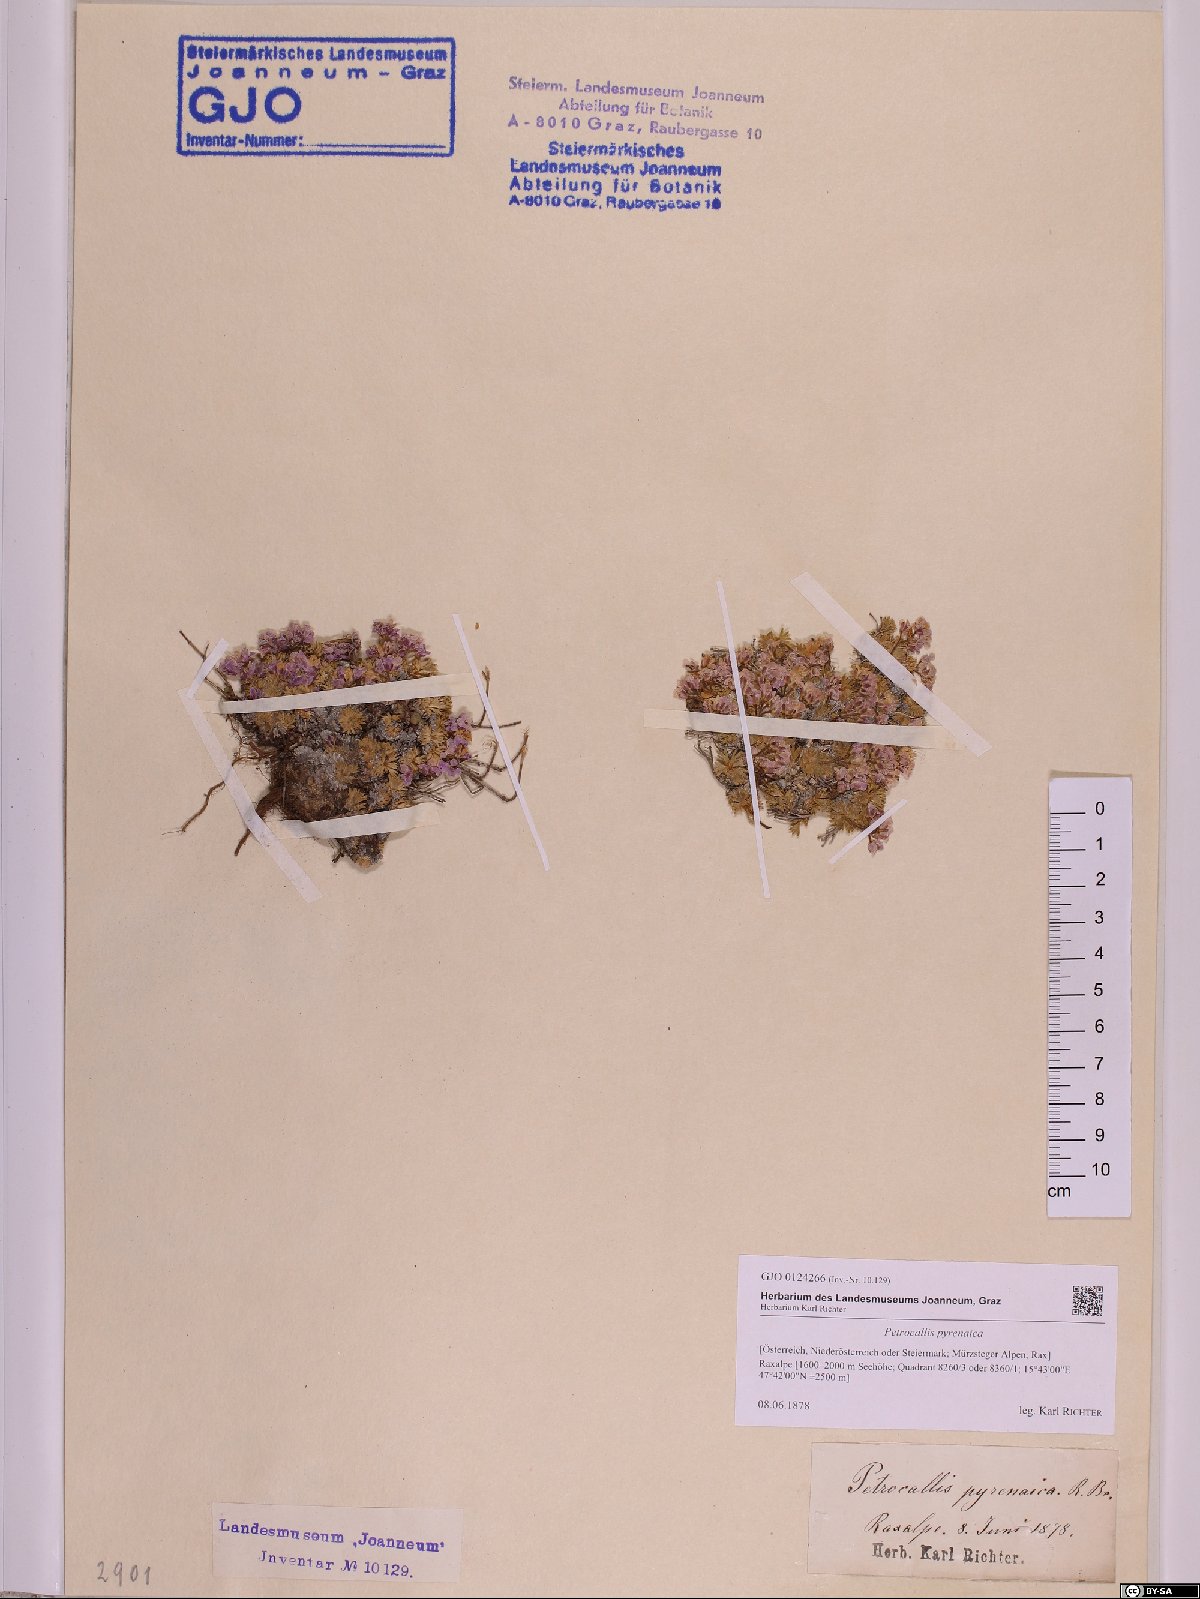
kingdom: Plantae
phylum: Tracheophyta
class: Magnoliopsida
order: Brassicales
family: Brassicaceae
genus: Petrocallis
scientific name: Petrocallis pyrenaica
